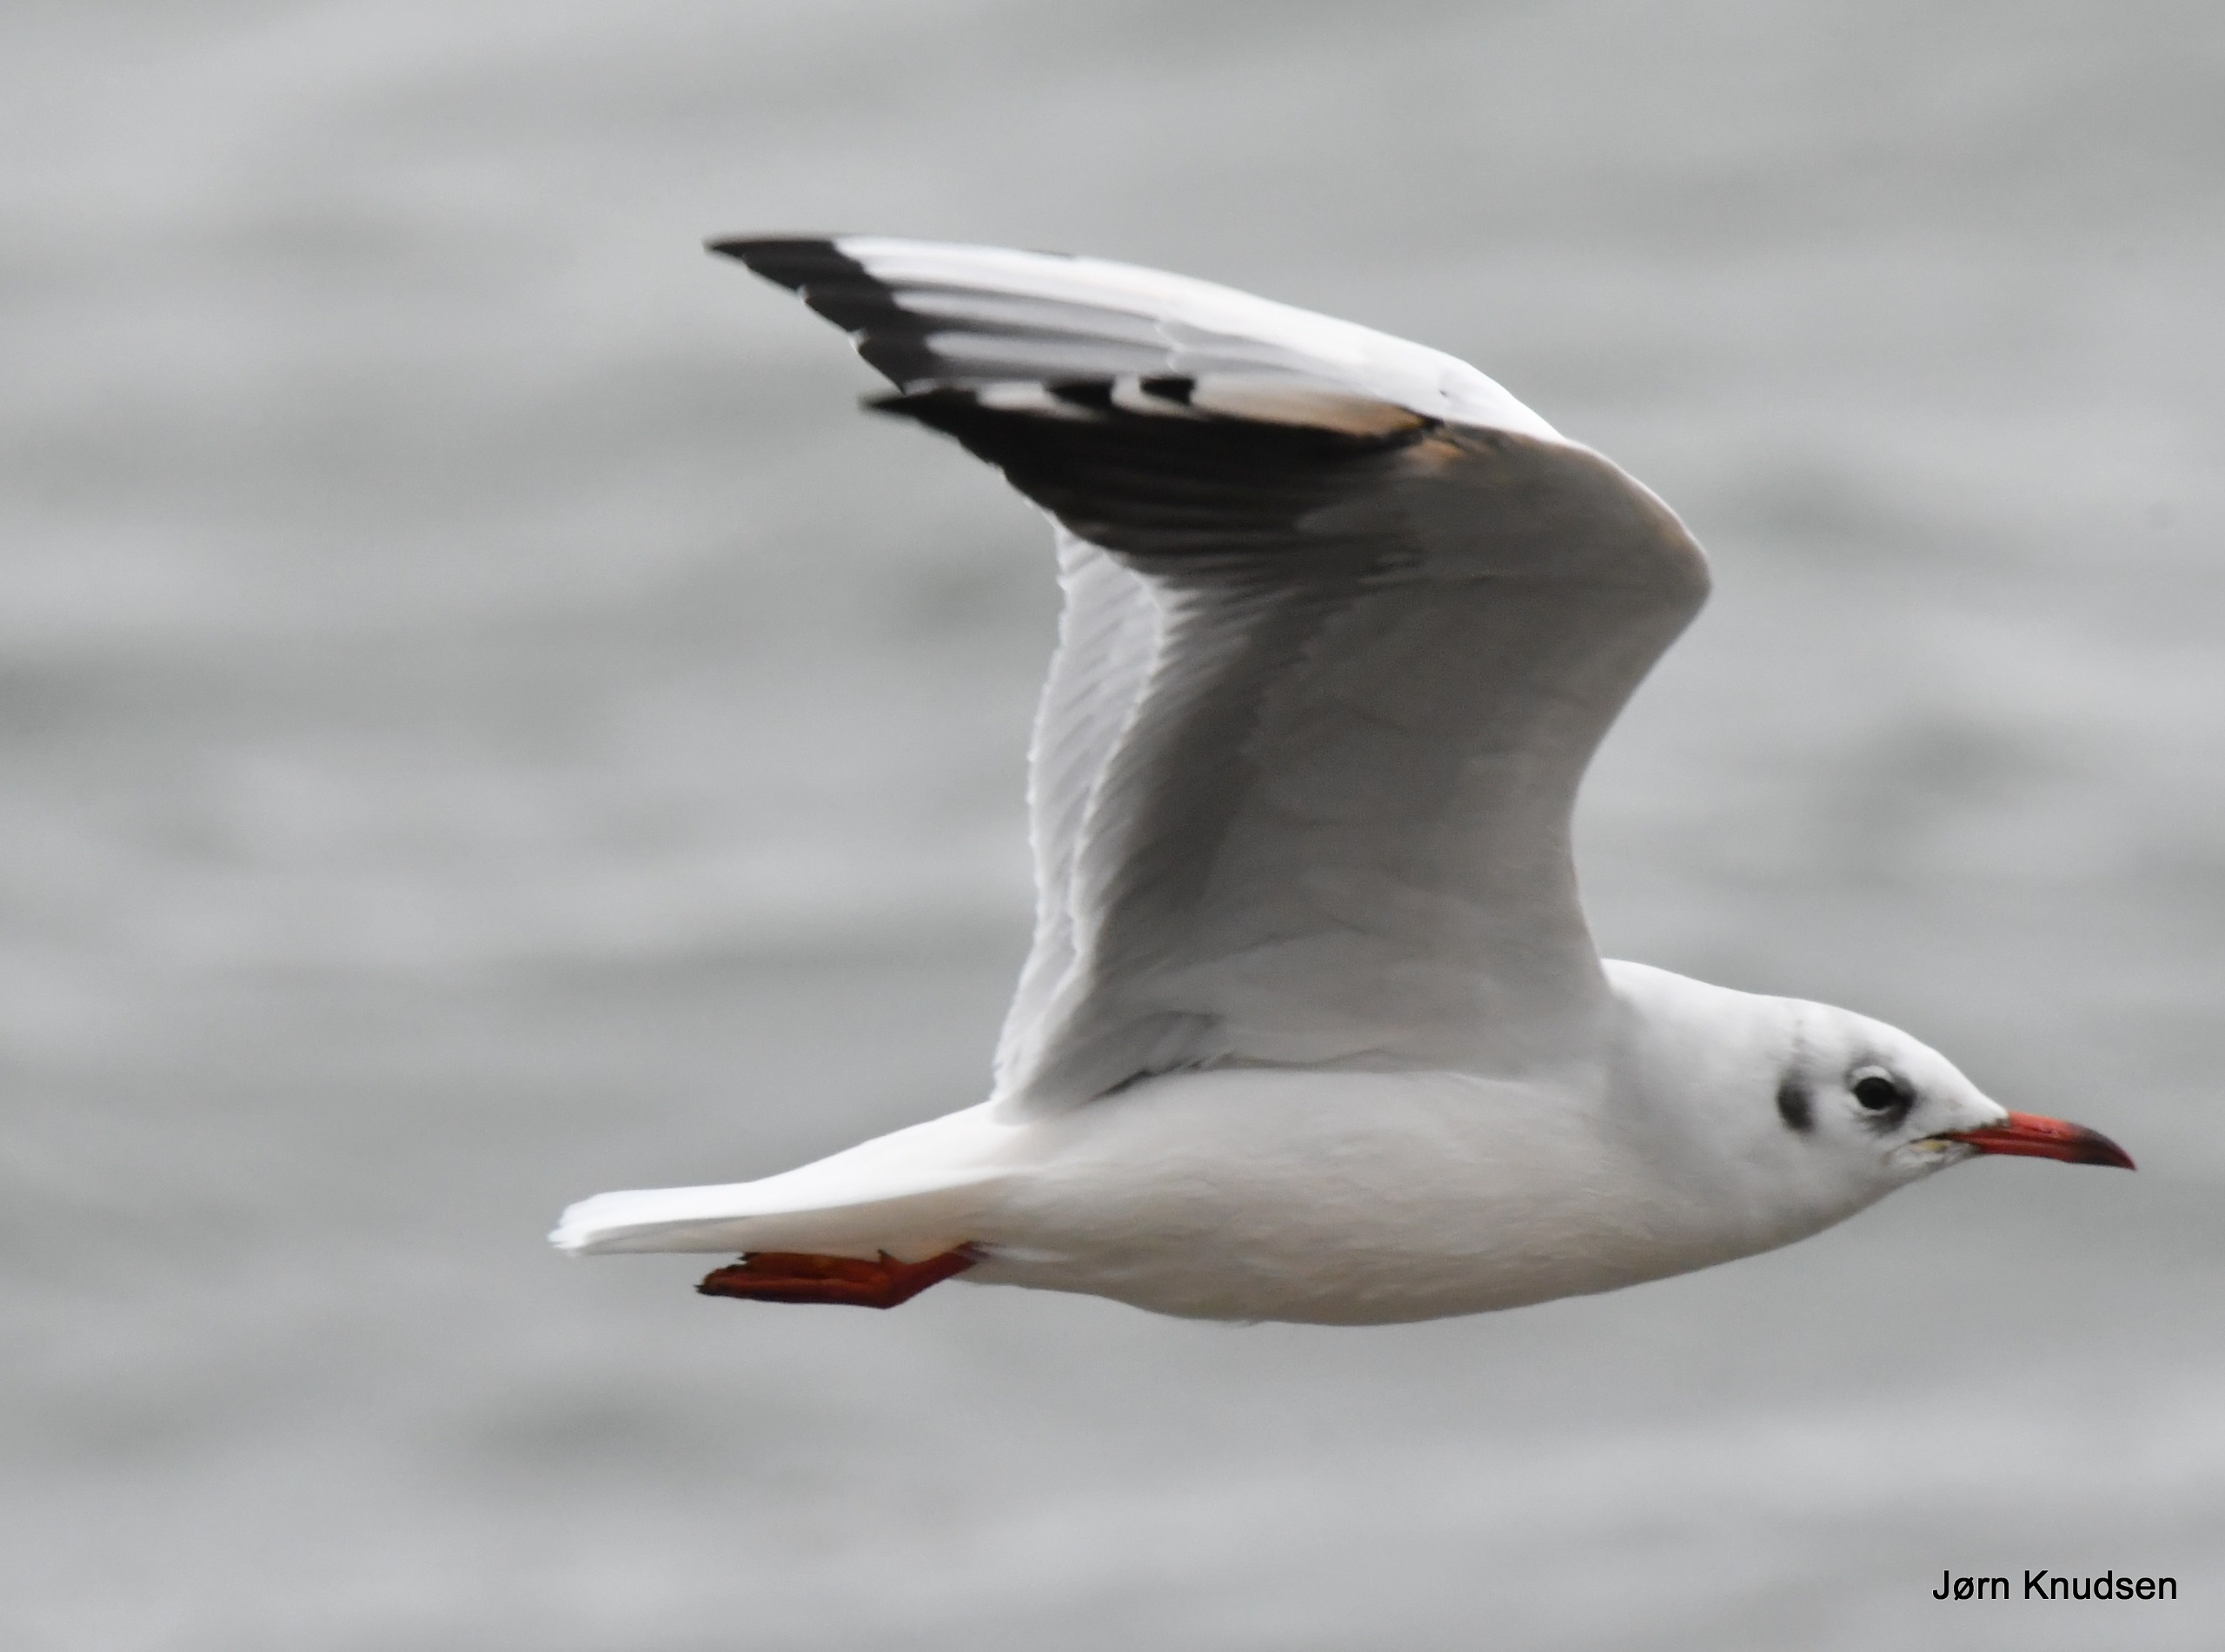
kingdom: Animalia
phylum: Chordata
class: Aves
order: Charadriiformes
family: Laridae
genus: Chroicocephalus
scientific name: Chroicocephalus ridibundus
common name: Hættemåge
